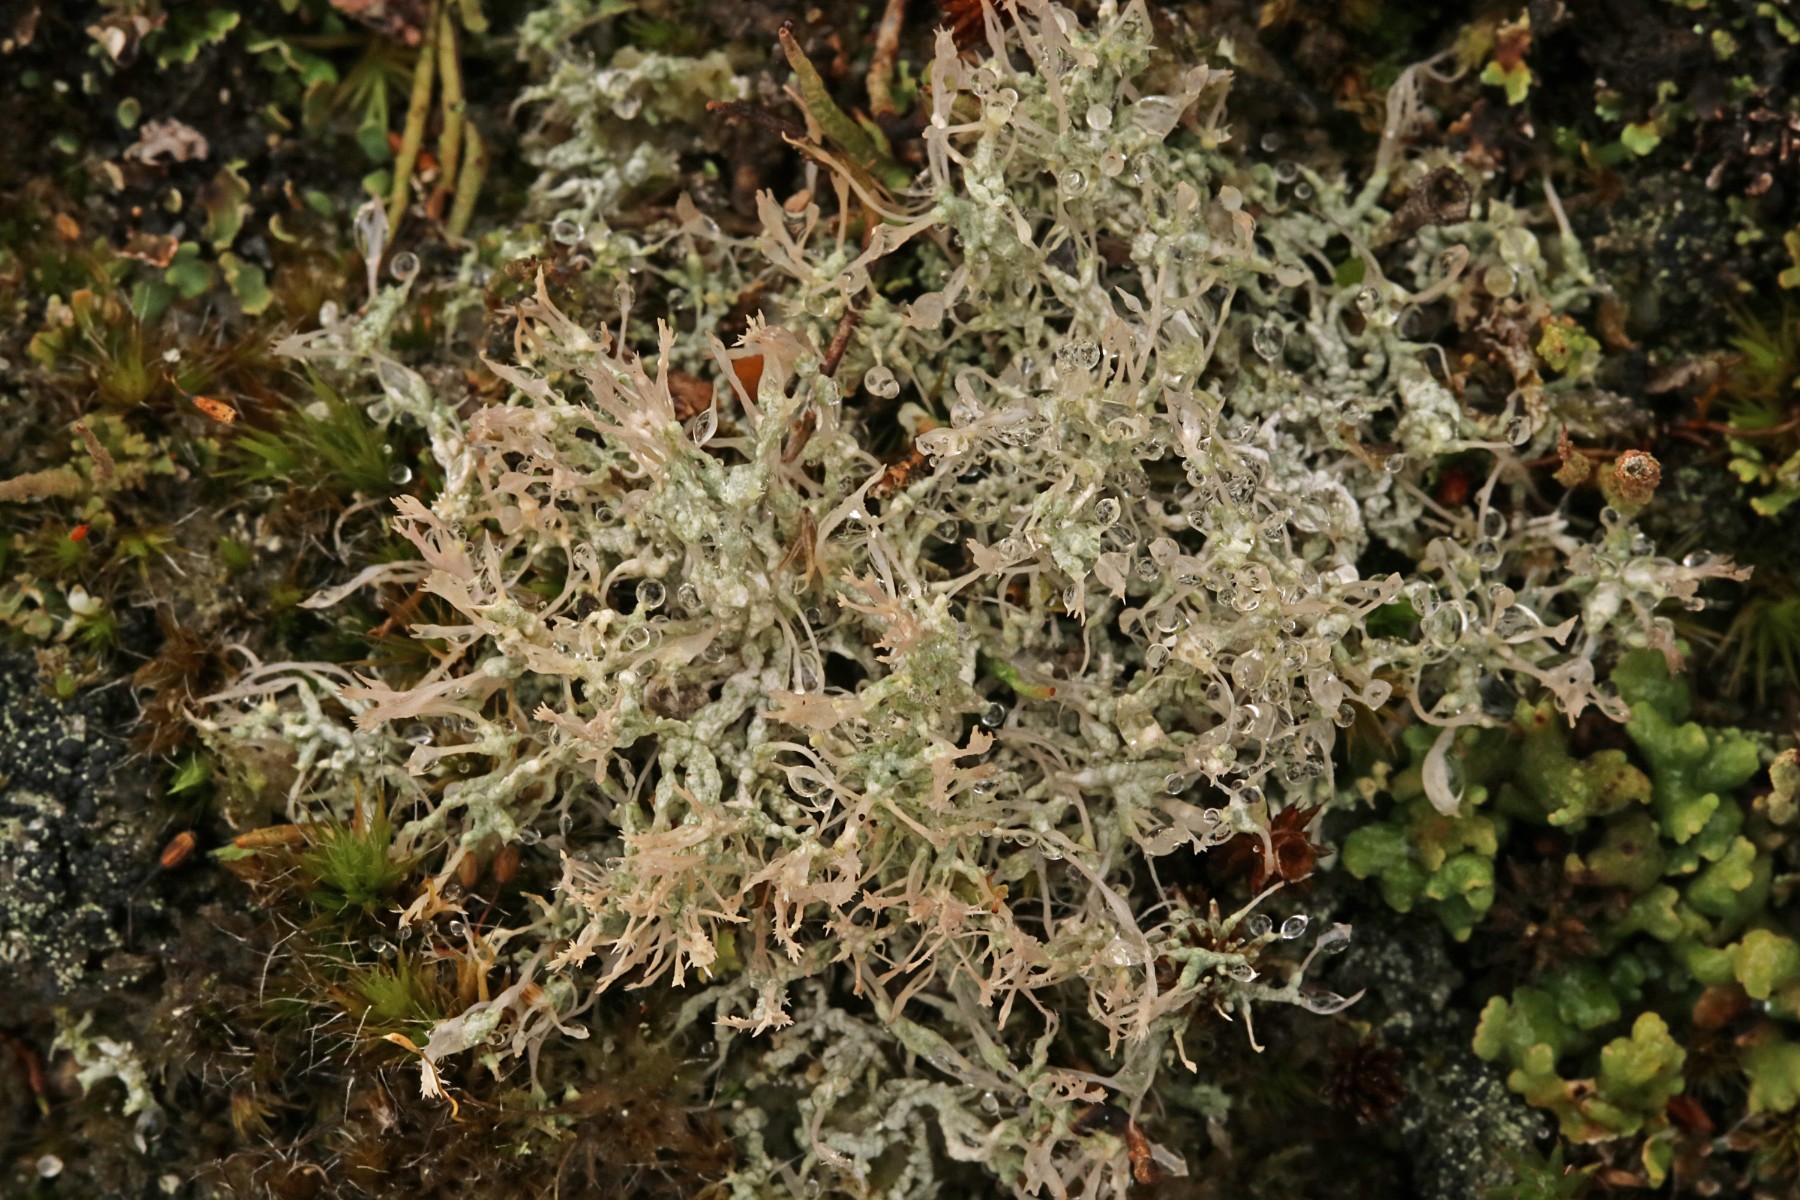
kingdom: Fungi
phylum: Ascomycota
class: Lecanoromycetes
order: Pertusariales
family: Ochrolechiaceae
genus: Ochrolechia
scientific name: Ochrolechia frigida
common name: fjeld-blegskivelav
